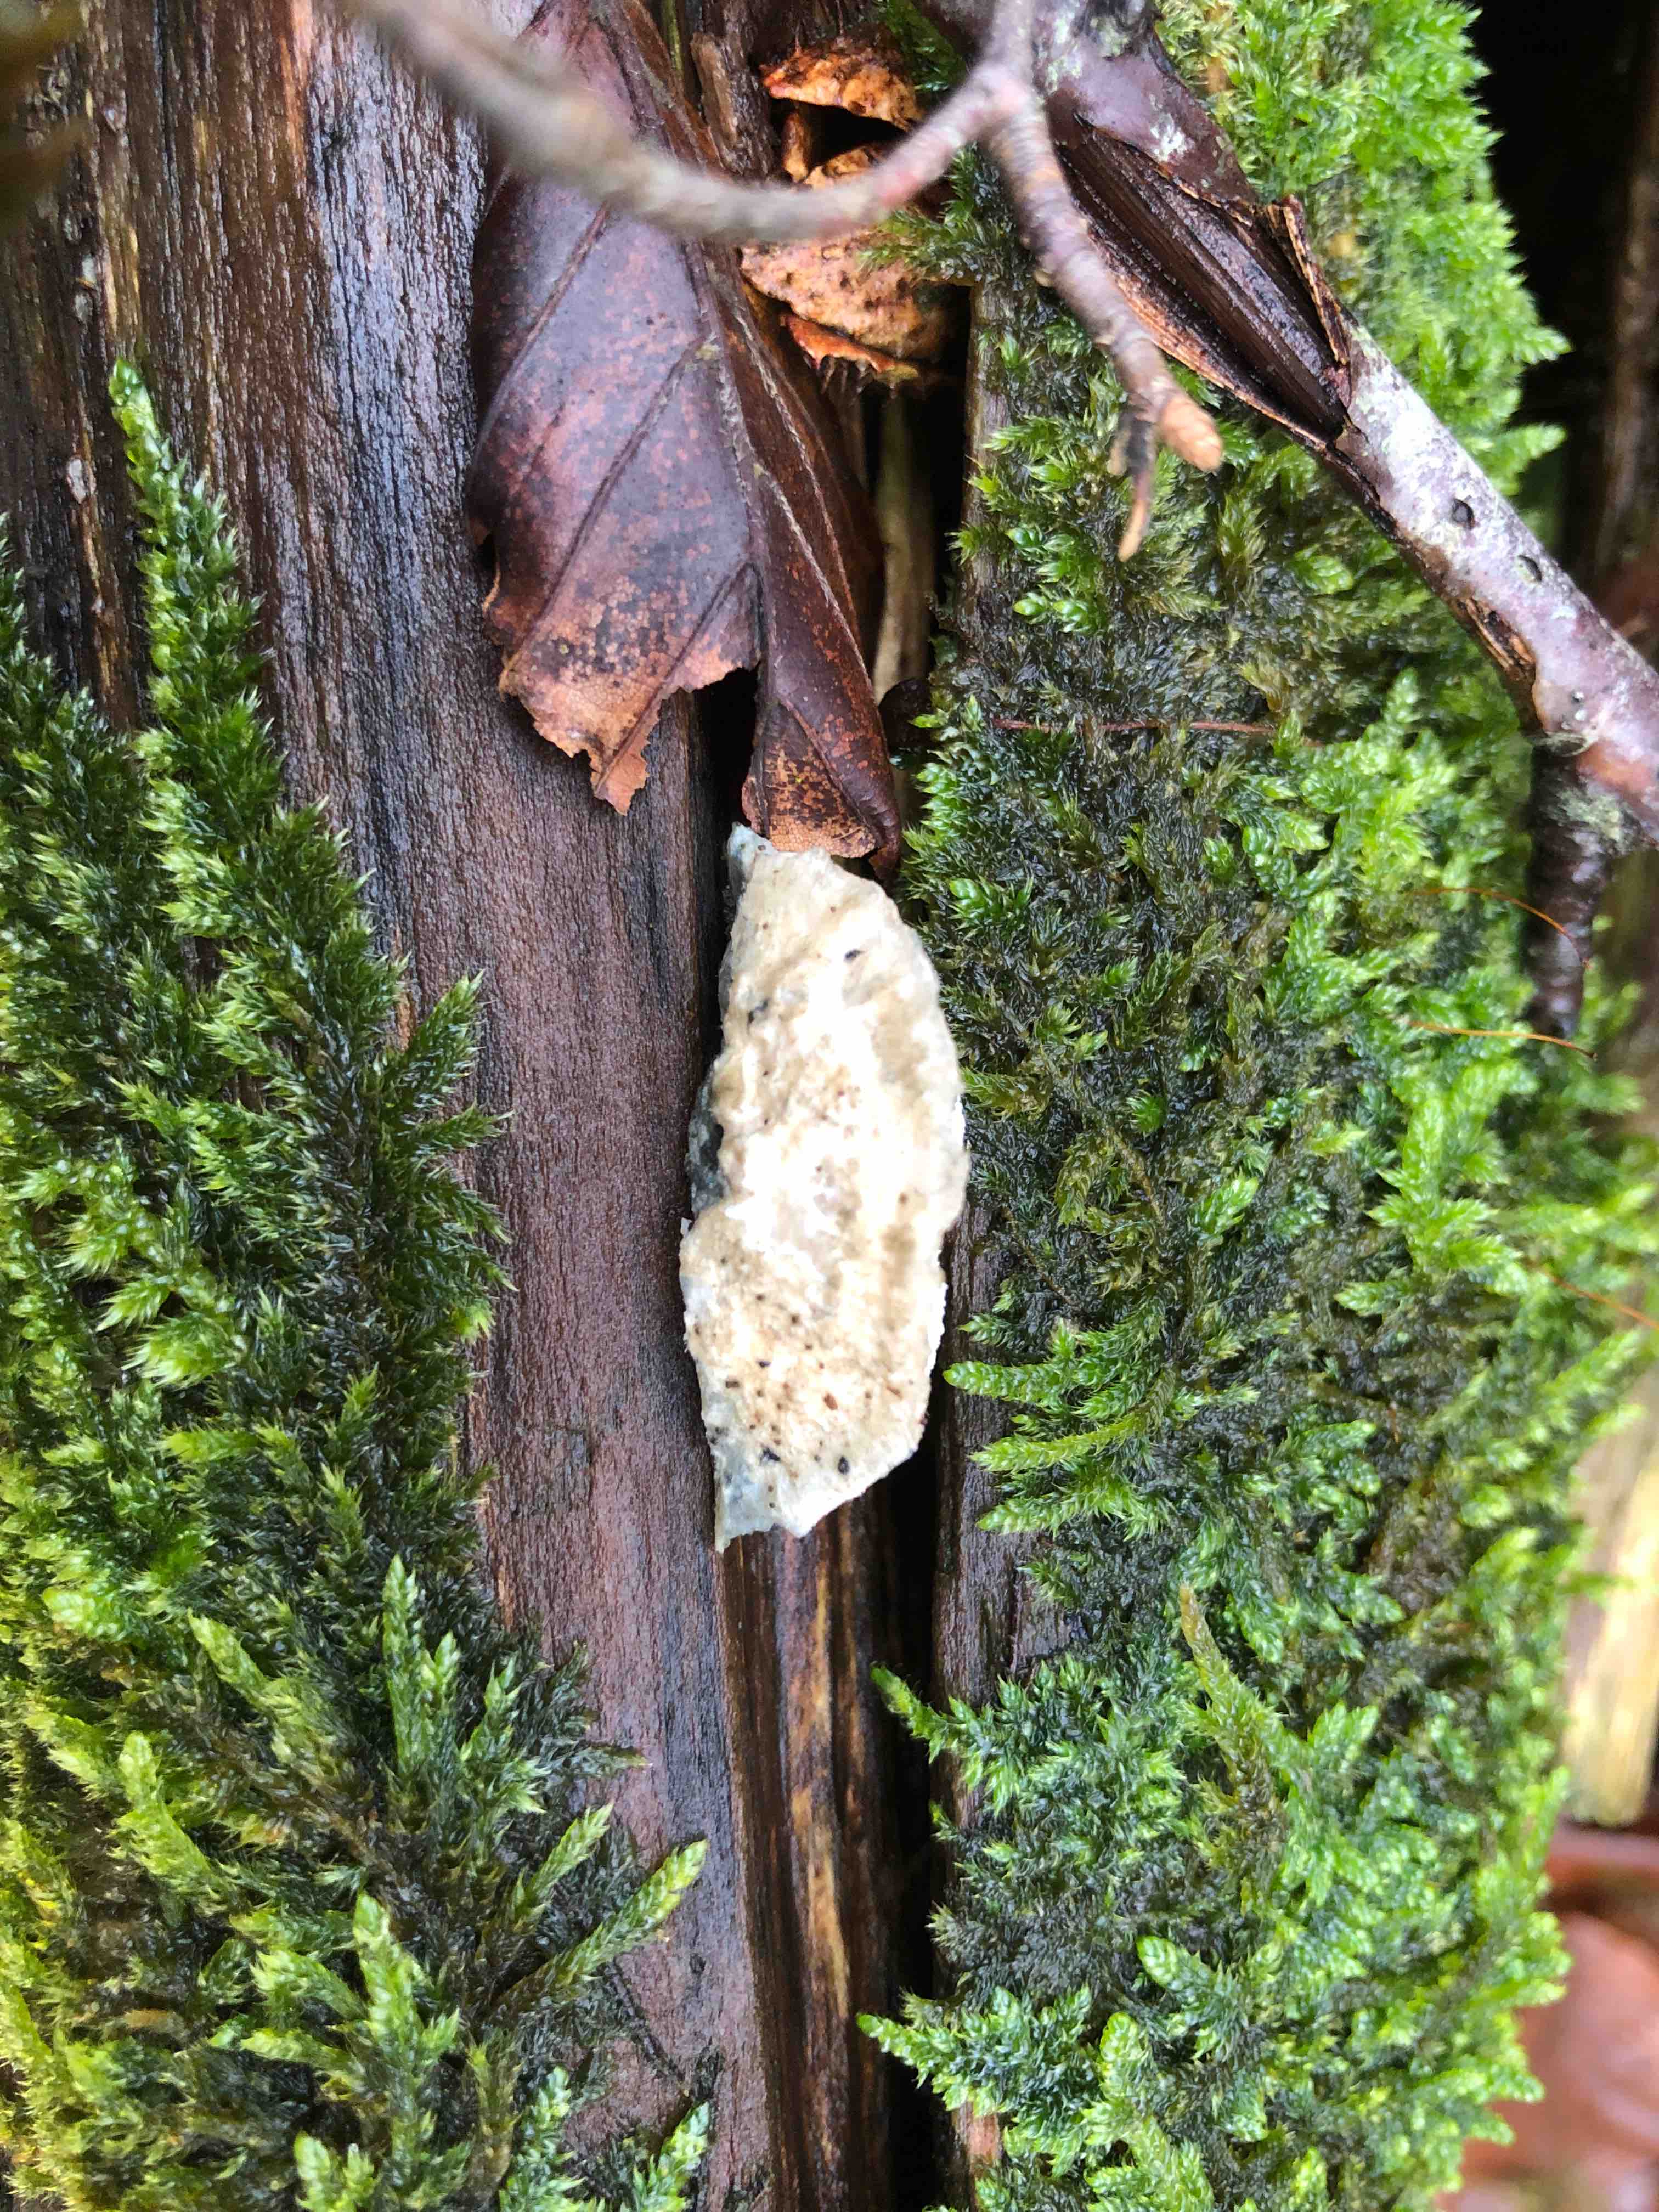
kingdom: Fungi
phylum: Basidiomycota
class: Agaricomycetes
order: Polyporales
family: Polyporaceae
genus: Cyanosporus
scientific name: Cyanosporus alni
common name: blegblå kødporesvamp
